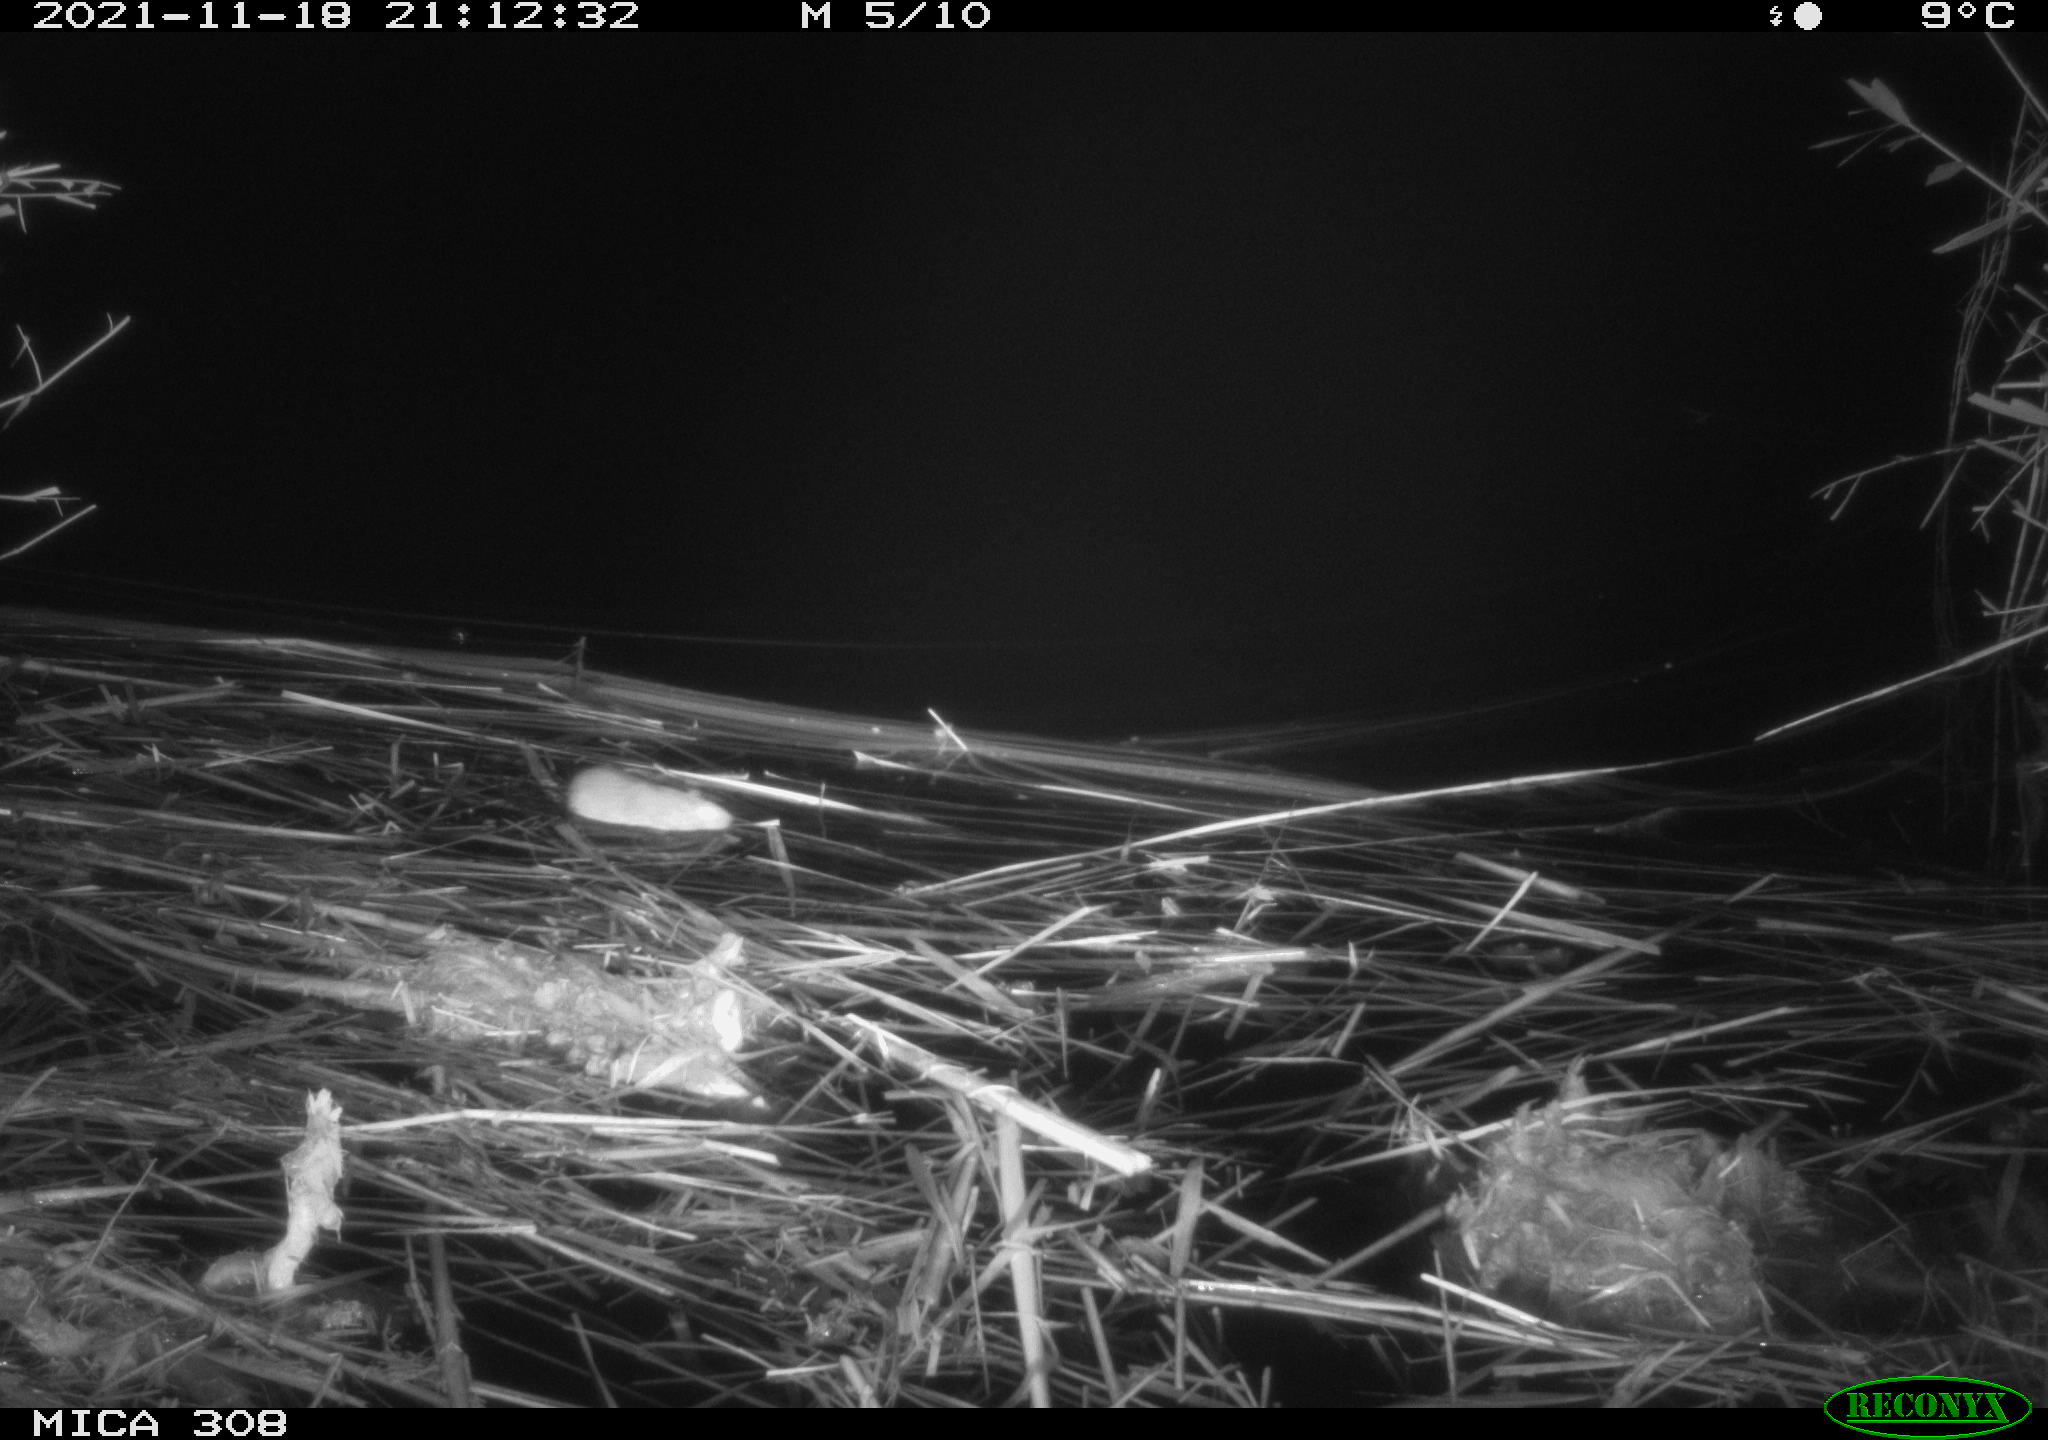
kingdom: Animalia
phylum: Chordata
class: Mammalia
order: Rodentia
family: Muridae
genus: Rattus
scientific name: Rattus norvegicus
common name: Brown rat
